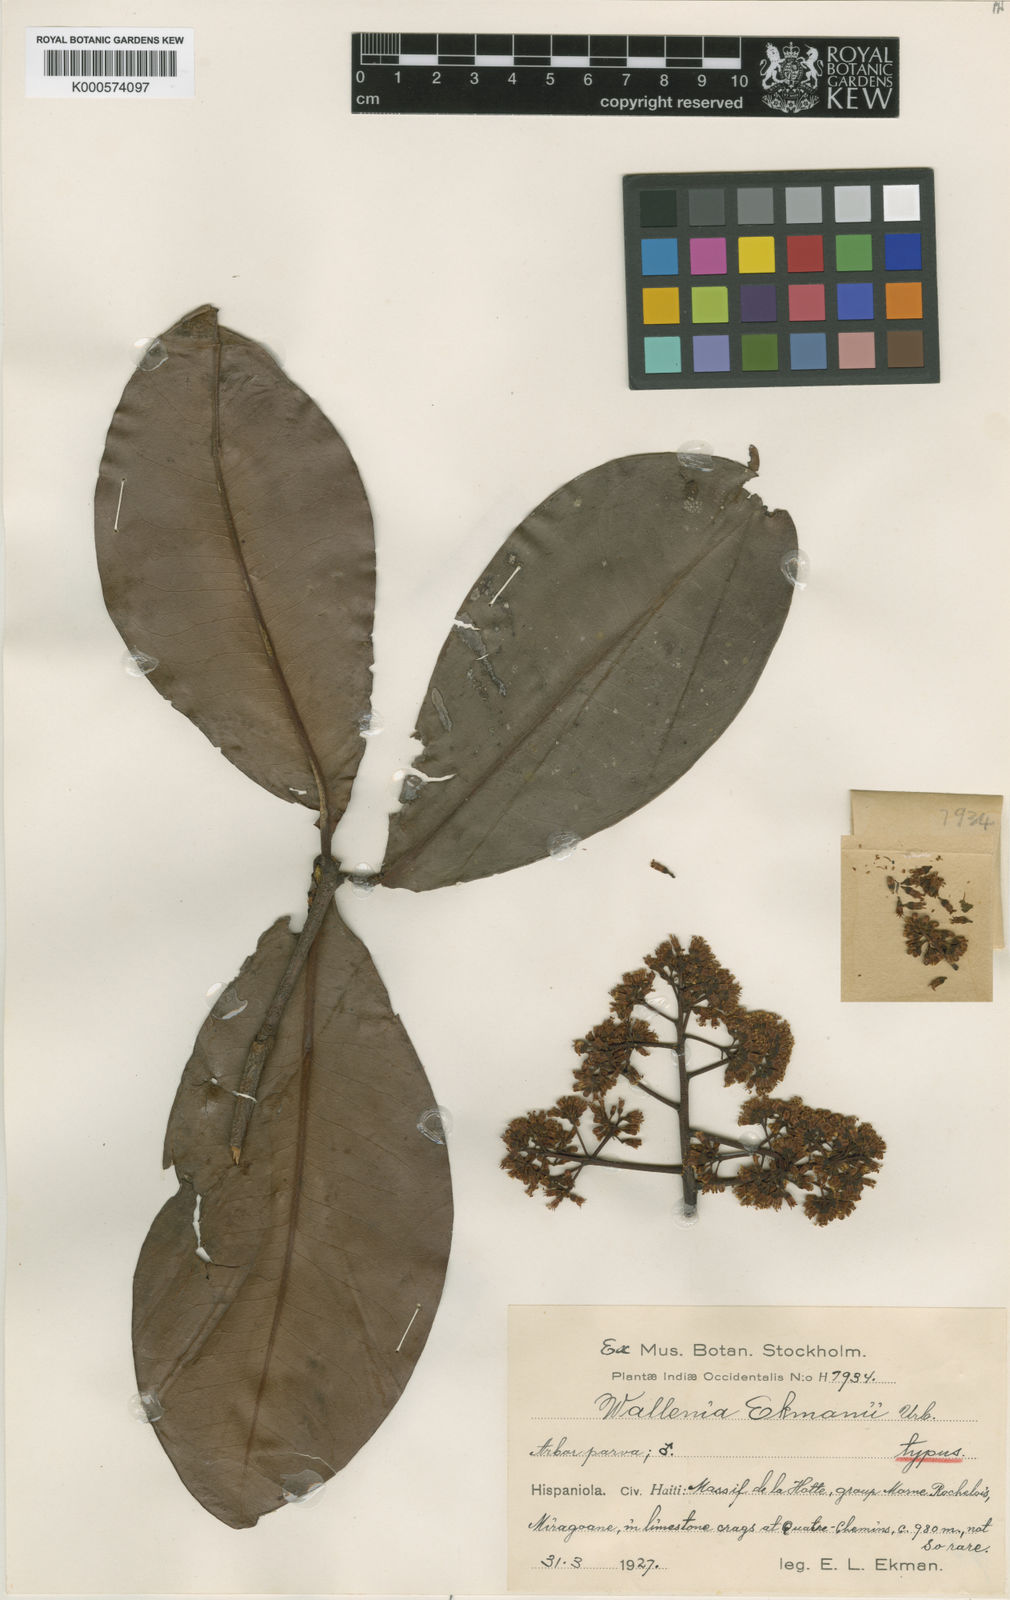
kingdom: Plantae
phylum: Tracheophyta
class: Magnoliopsida
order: Ericales
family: Primulaceae
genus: Wallenia
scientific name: Wallenia ekmanii
